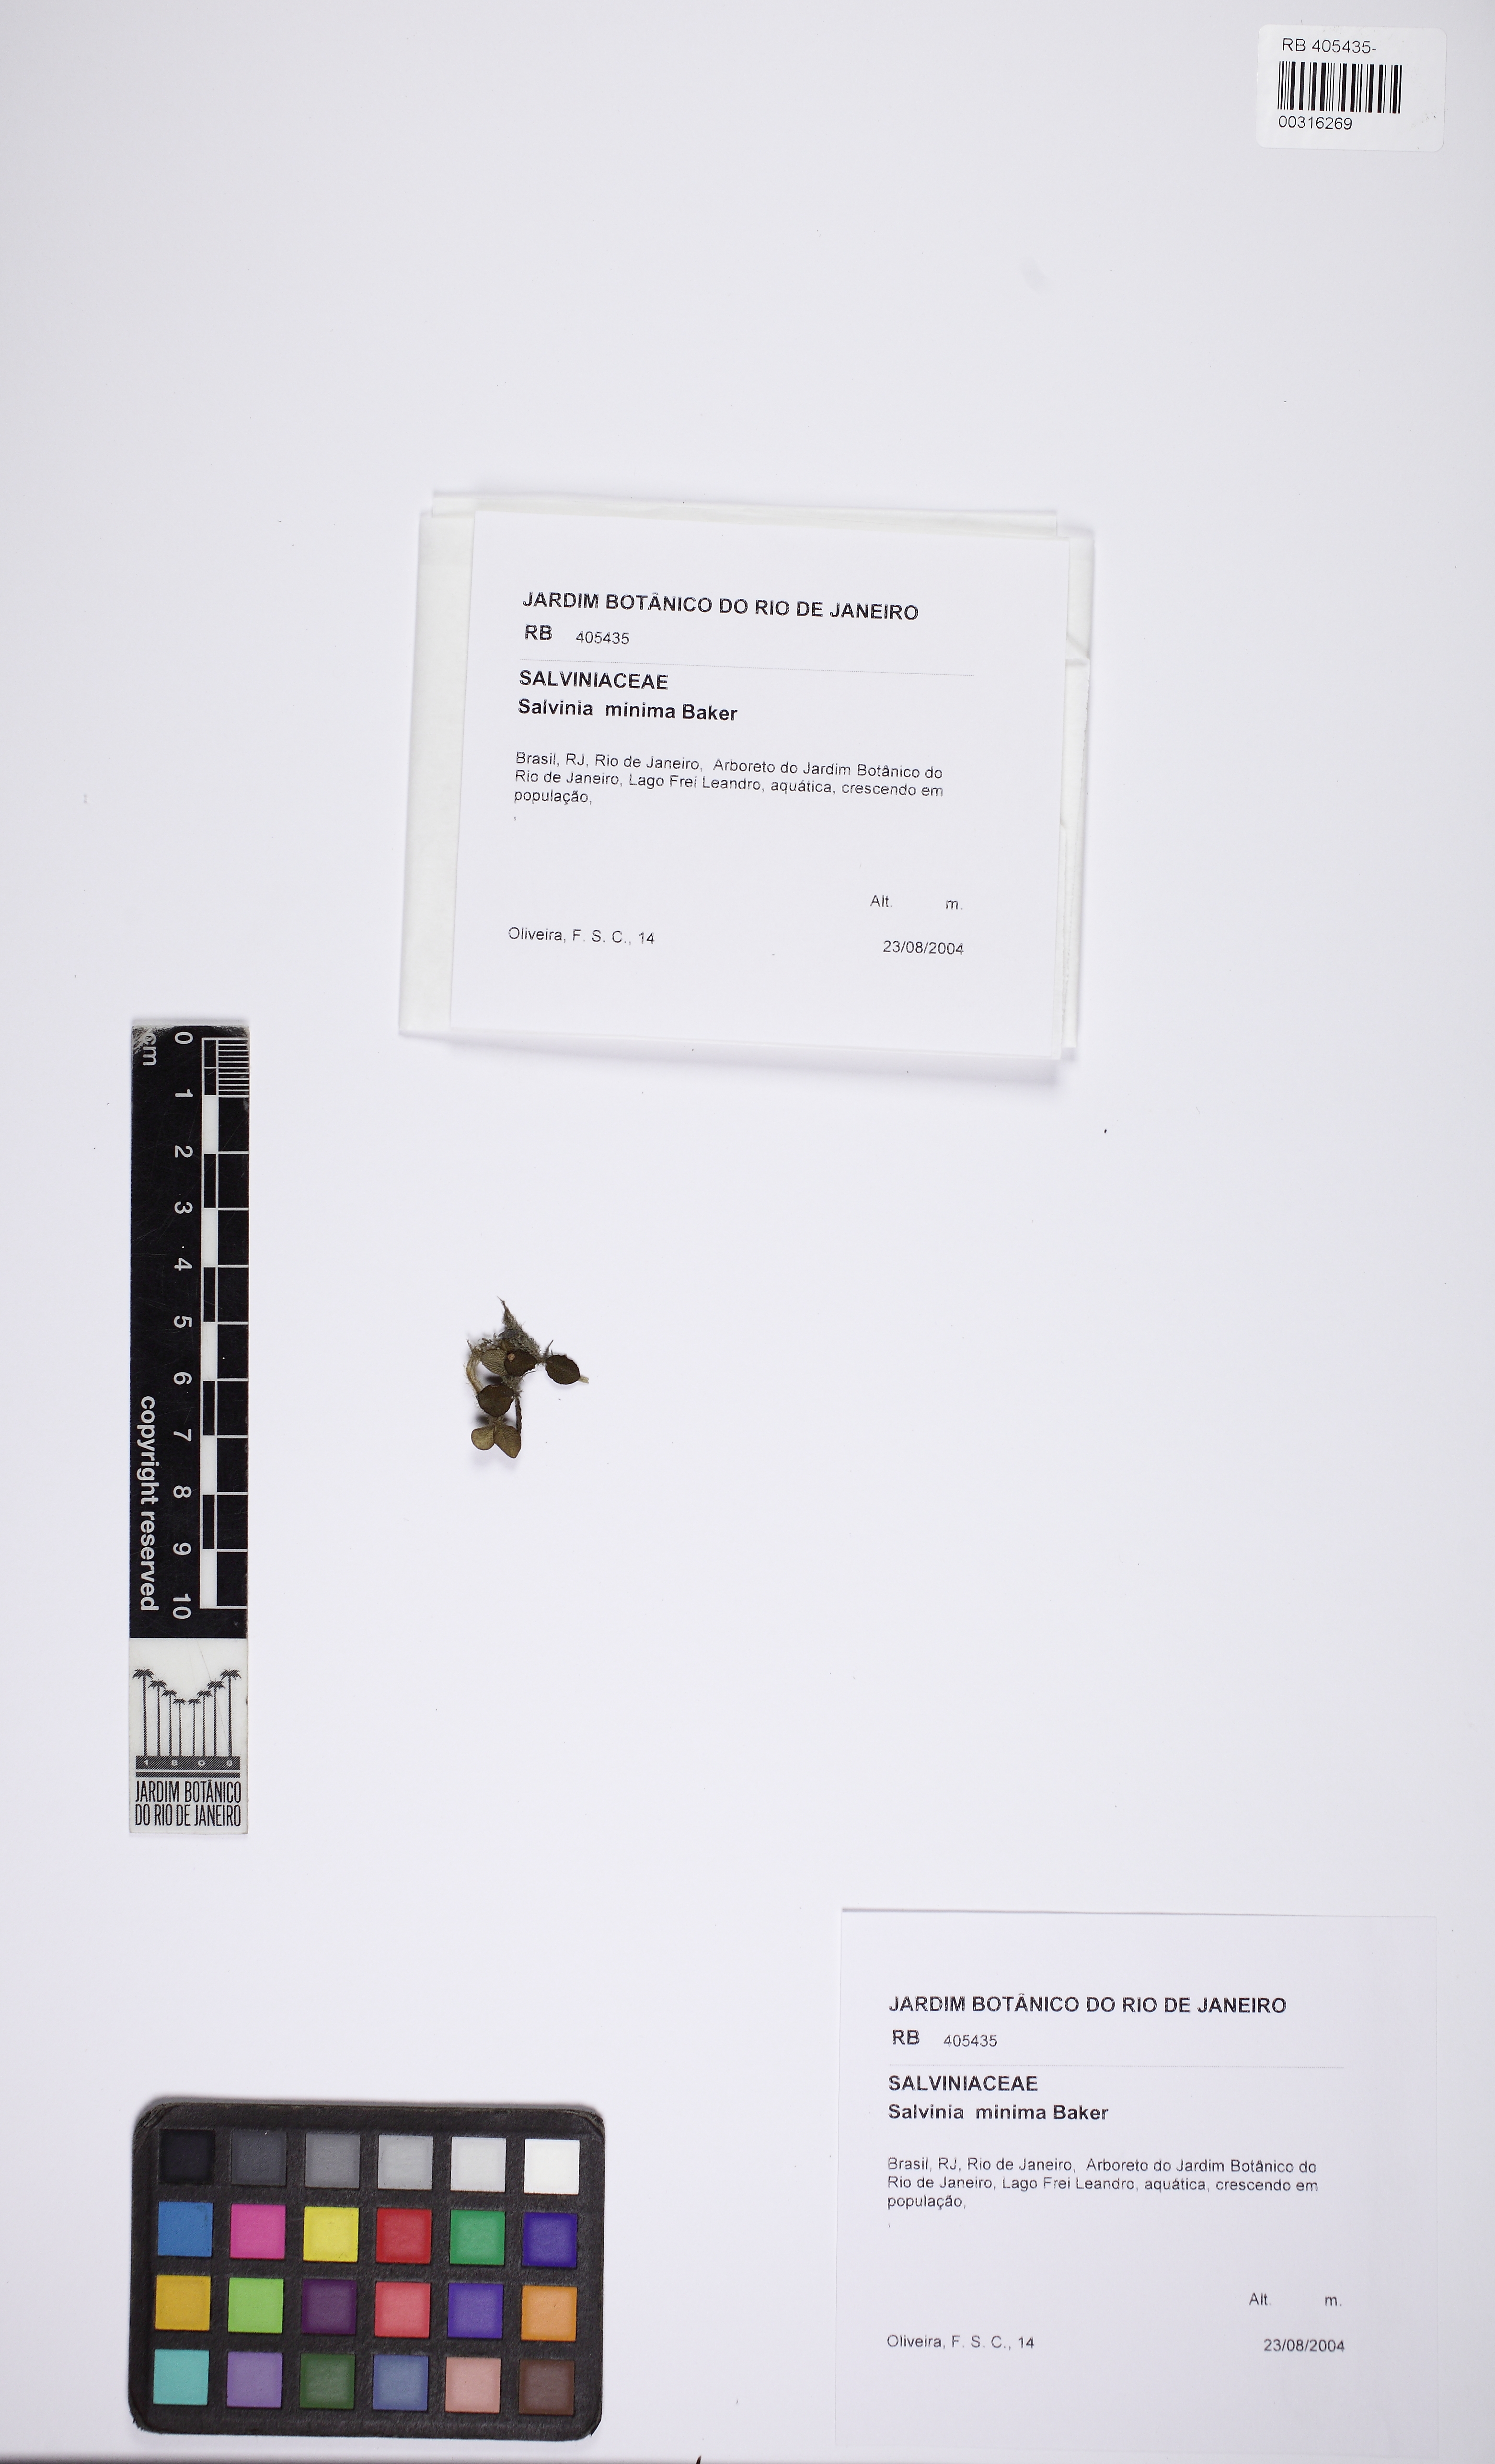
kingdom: Plantae
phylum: Tracheophyta
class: Polypodiopsida
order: Salviniales
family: Salviniaceae
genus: Salvinia
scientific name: Salvinia minima
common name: Water spangles
